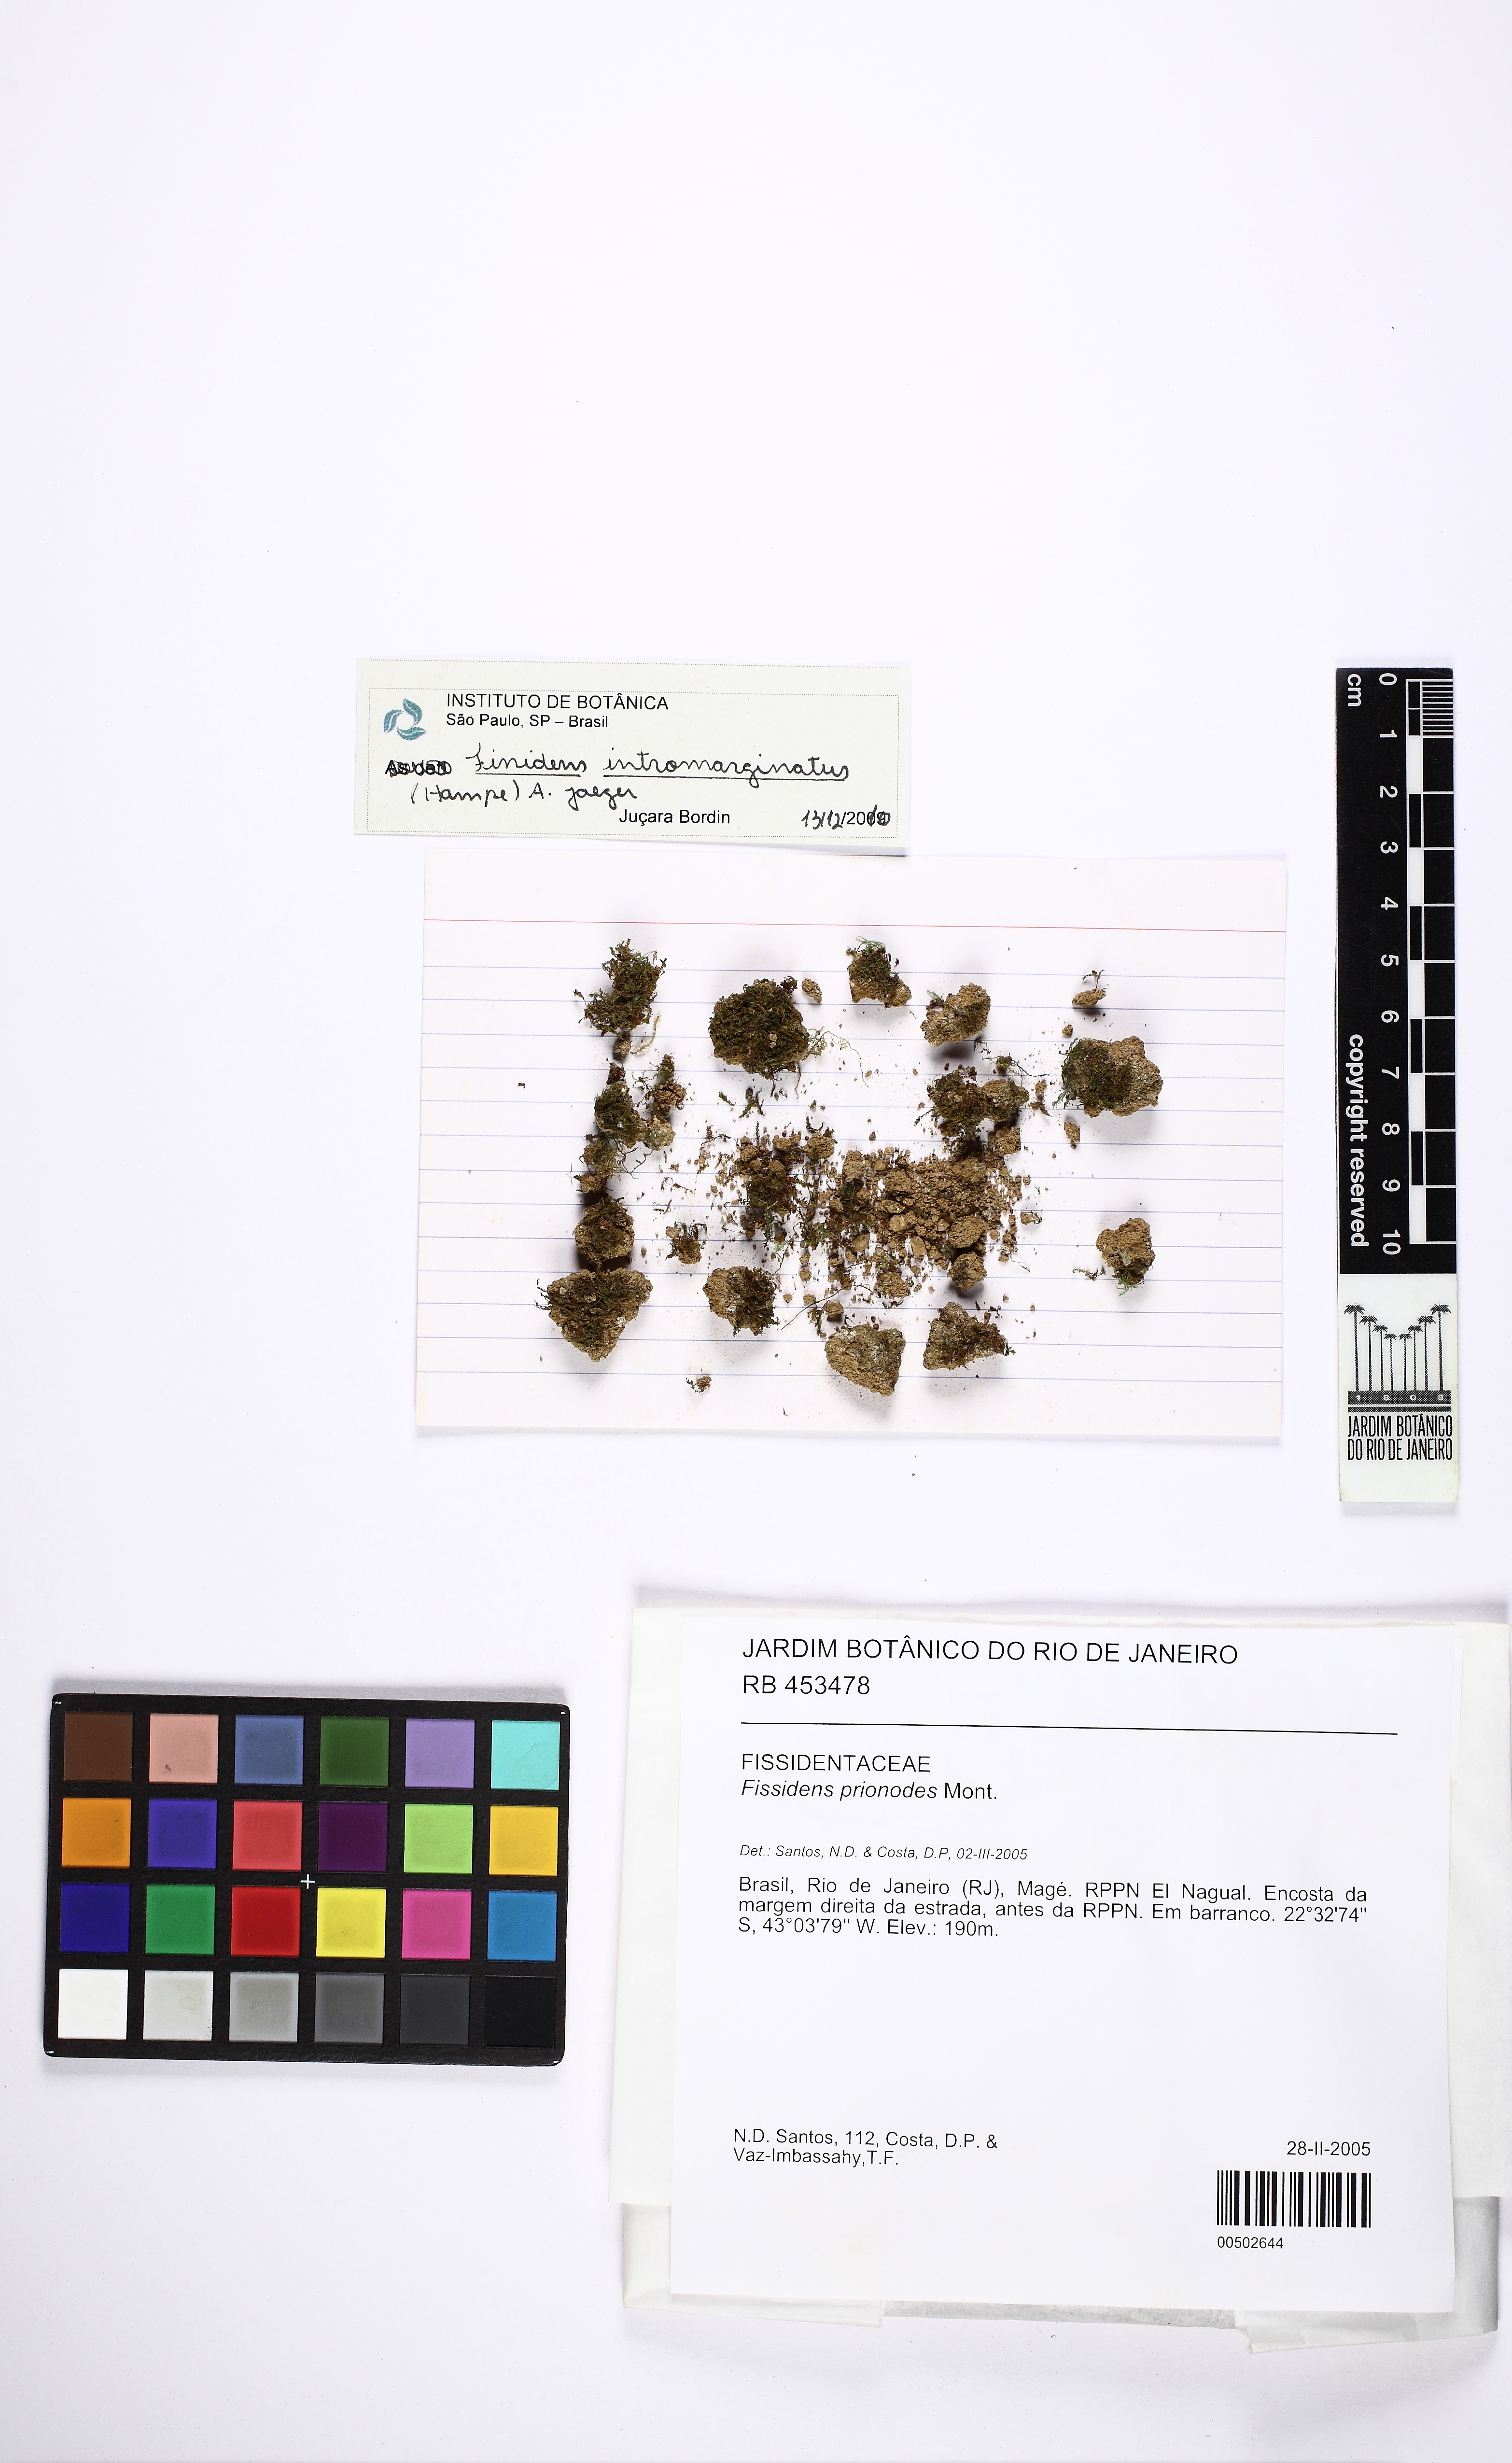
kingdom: Plantae
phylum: Bryophyta
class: Bryopsida
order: Dicranales
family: Fissidentaceae
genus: Fissidens
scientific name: Fissidens prionodes
